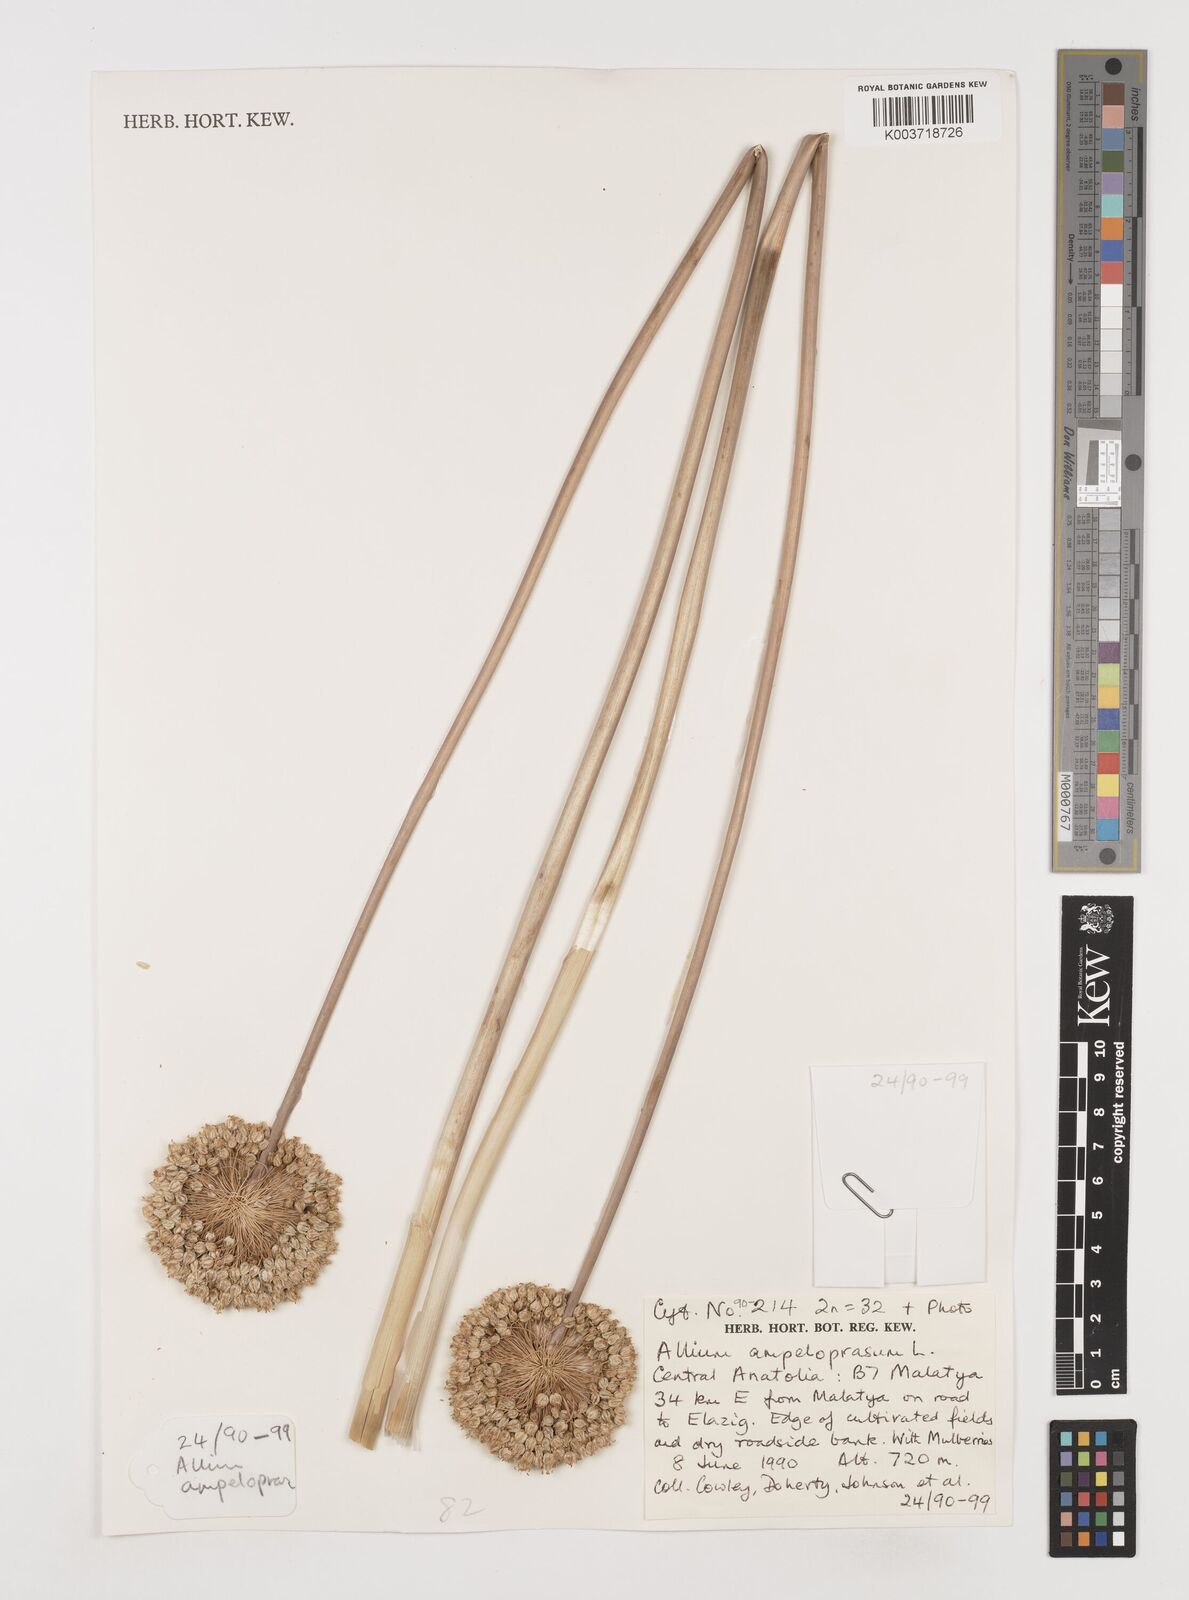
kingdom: Plantae
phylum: Tracheophyta
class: Liliopsida
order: Asparagales
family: Amaryllidaceae
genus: Allium
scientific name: Allium ampeloprasum
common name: Wild leek
